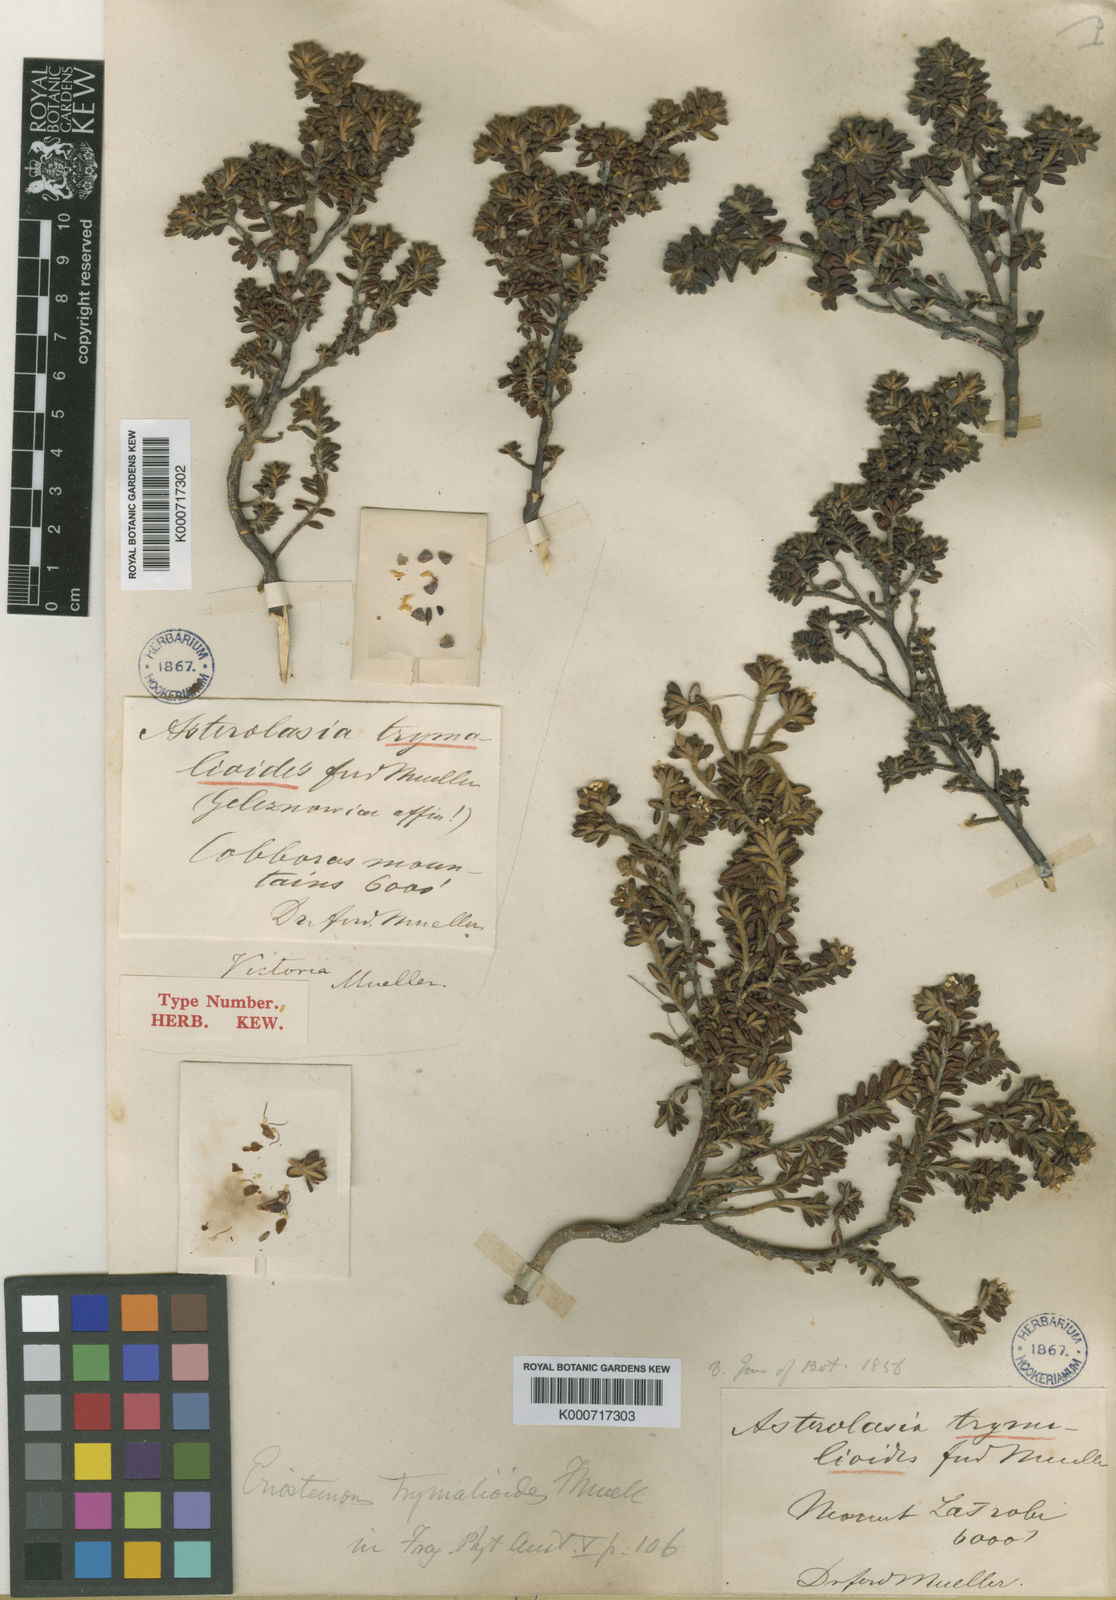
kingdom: Plantae
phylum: Tracheophyta
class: Magnoliopsida
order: Sapindales
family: Rutaceae
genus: Asterolasia
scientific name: Asterolasia trymalioides
